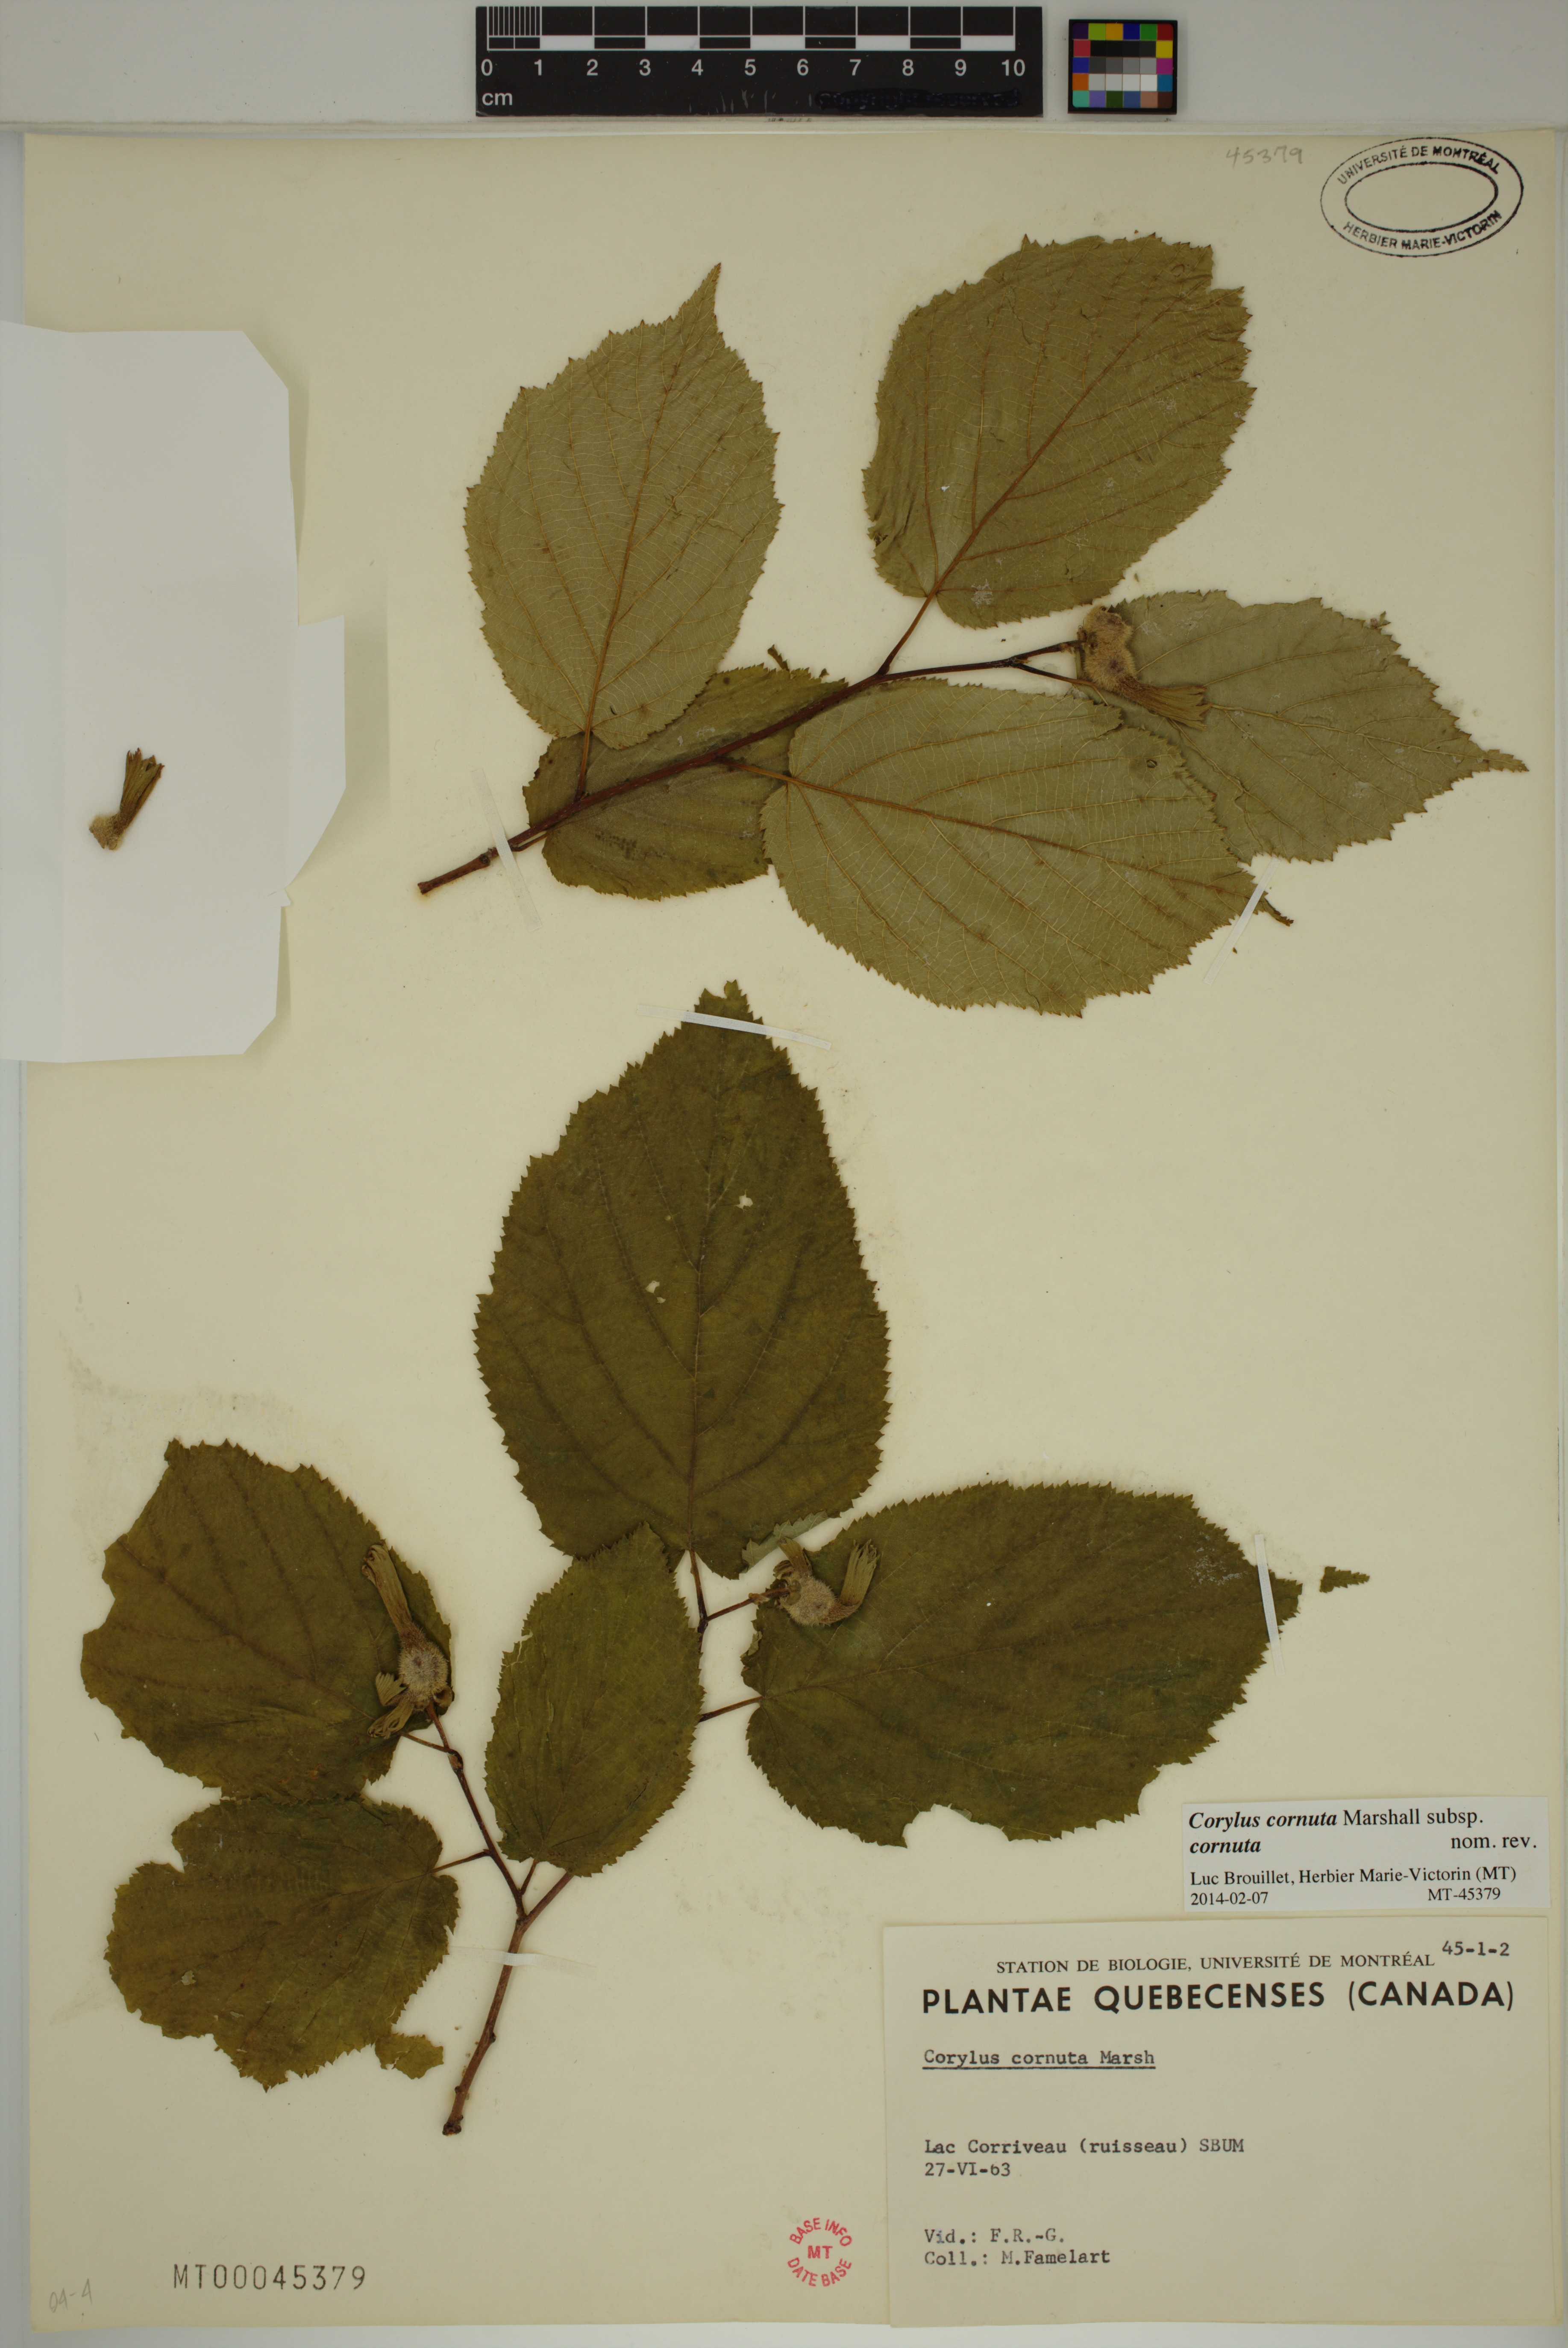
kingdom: Plantae
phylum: Tracheophyta
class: Magnoliopsida
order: Fagales
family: Betulaceae
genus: Corylus
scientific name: Corylus cornuta
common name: Beaked hazel
